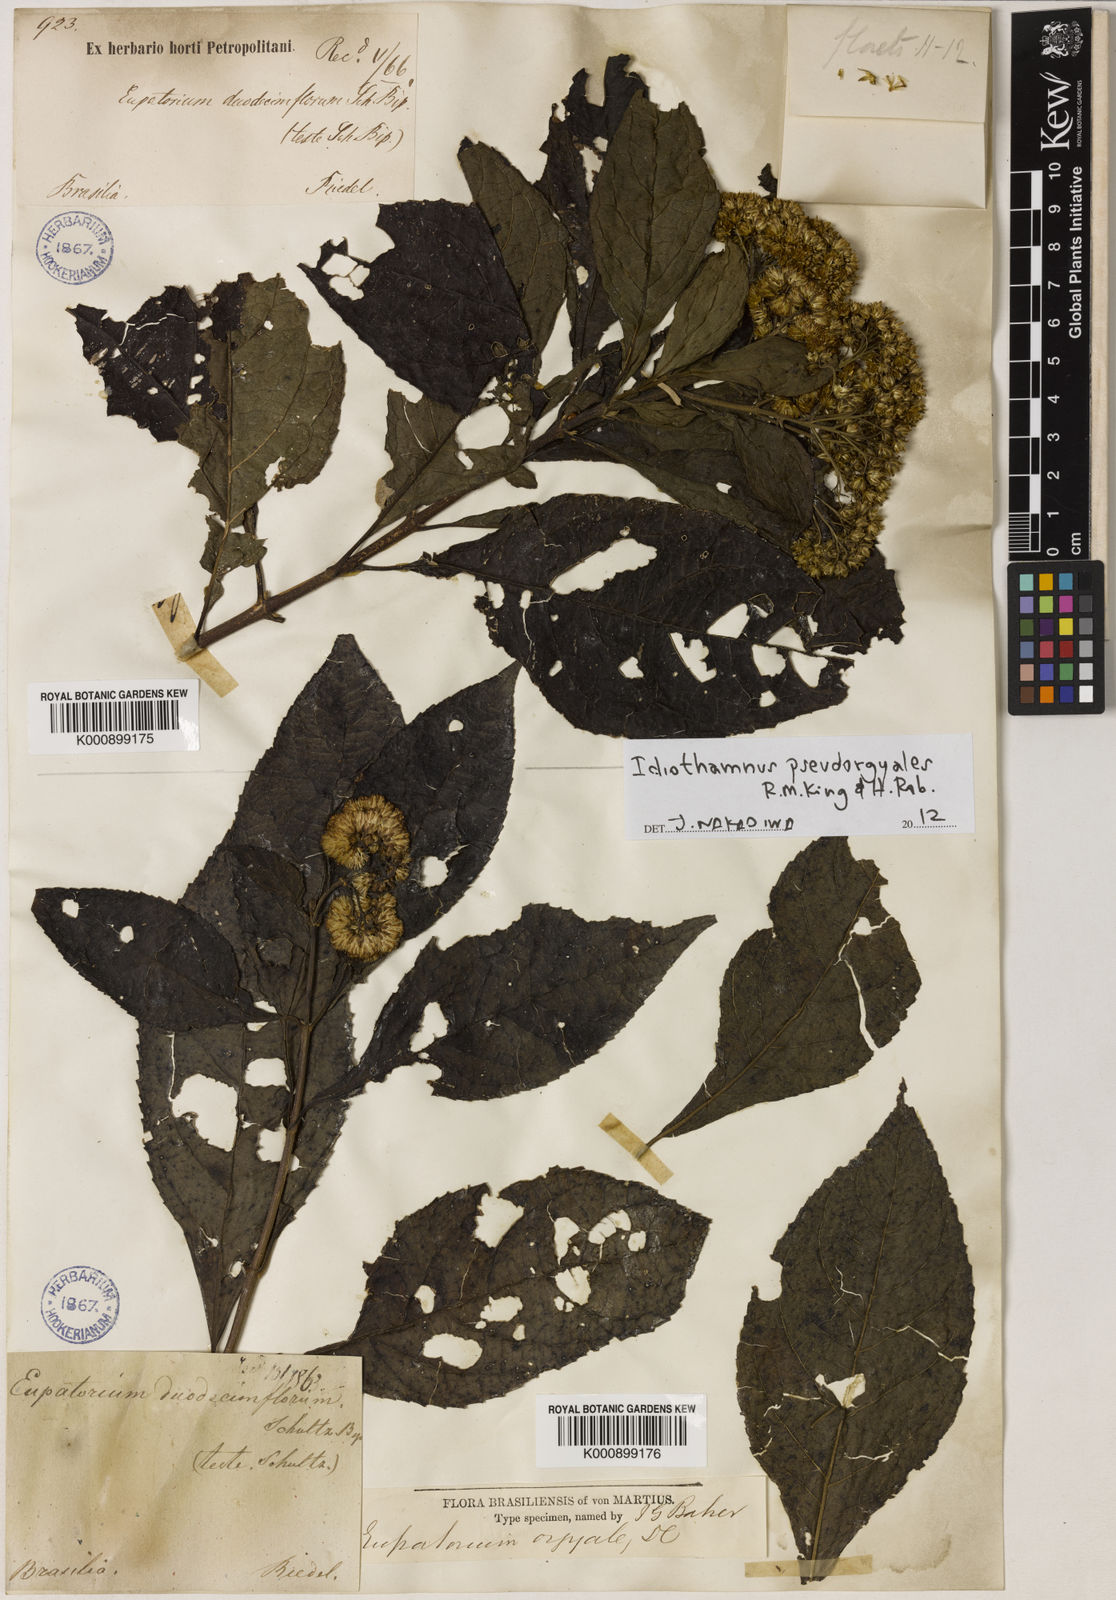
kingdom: Plantae
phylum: Tracheophyta
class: Magnoliopsida
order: Asterales
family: Asteraceae
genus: Idiothamnus
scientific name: Idiothamnus pseudorgyalis
